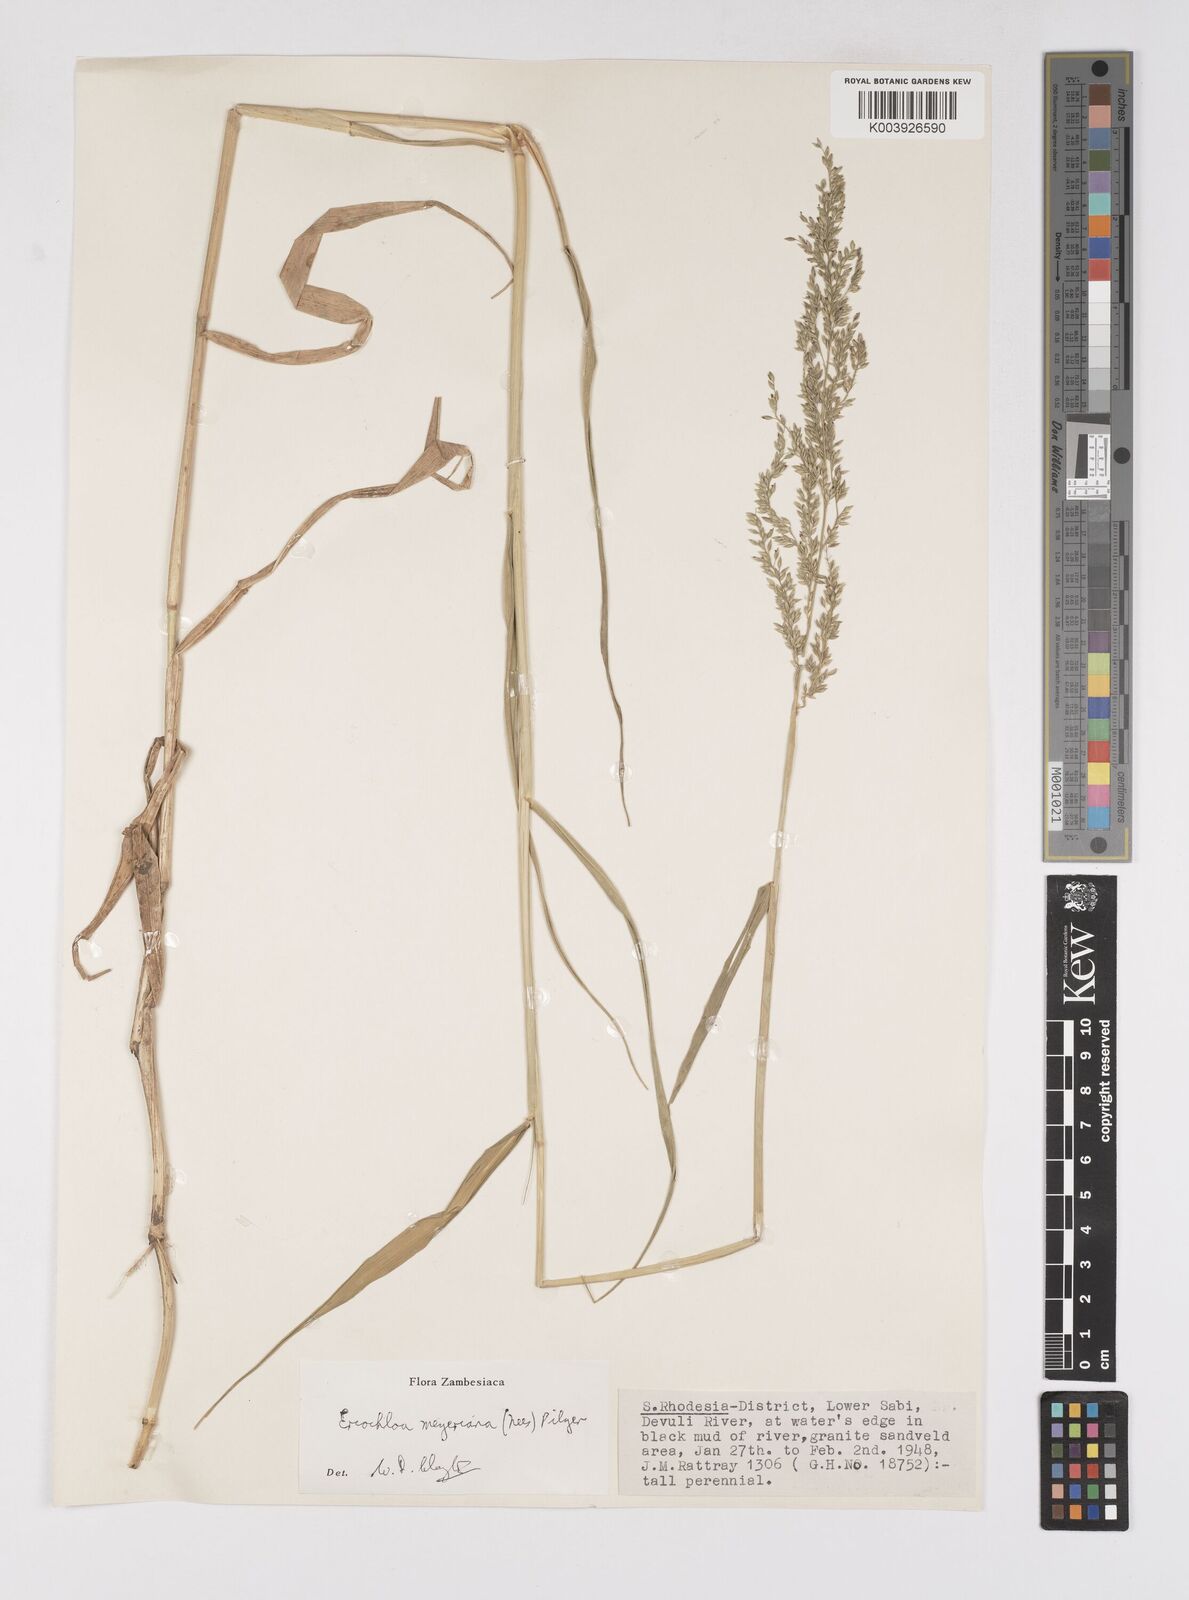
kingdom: Plantae
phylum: Tracheophyta
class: Liliopsida
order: Poales
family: Poaceae
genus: Eriochloa
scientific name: Eriochloa meyeriana
